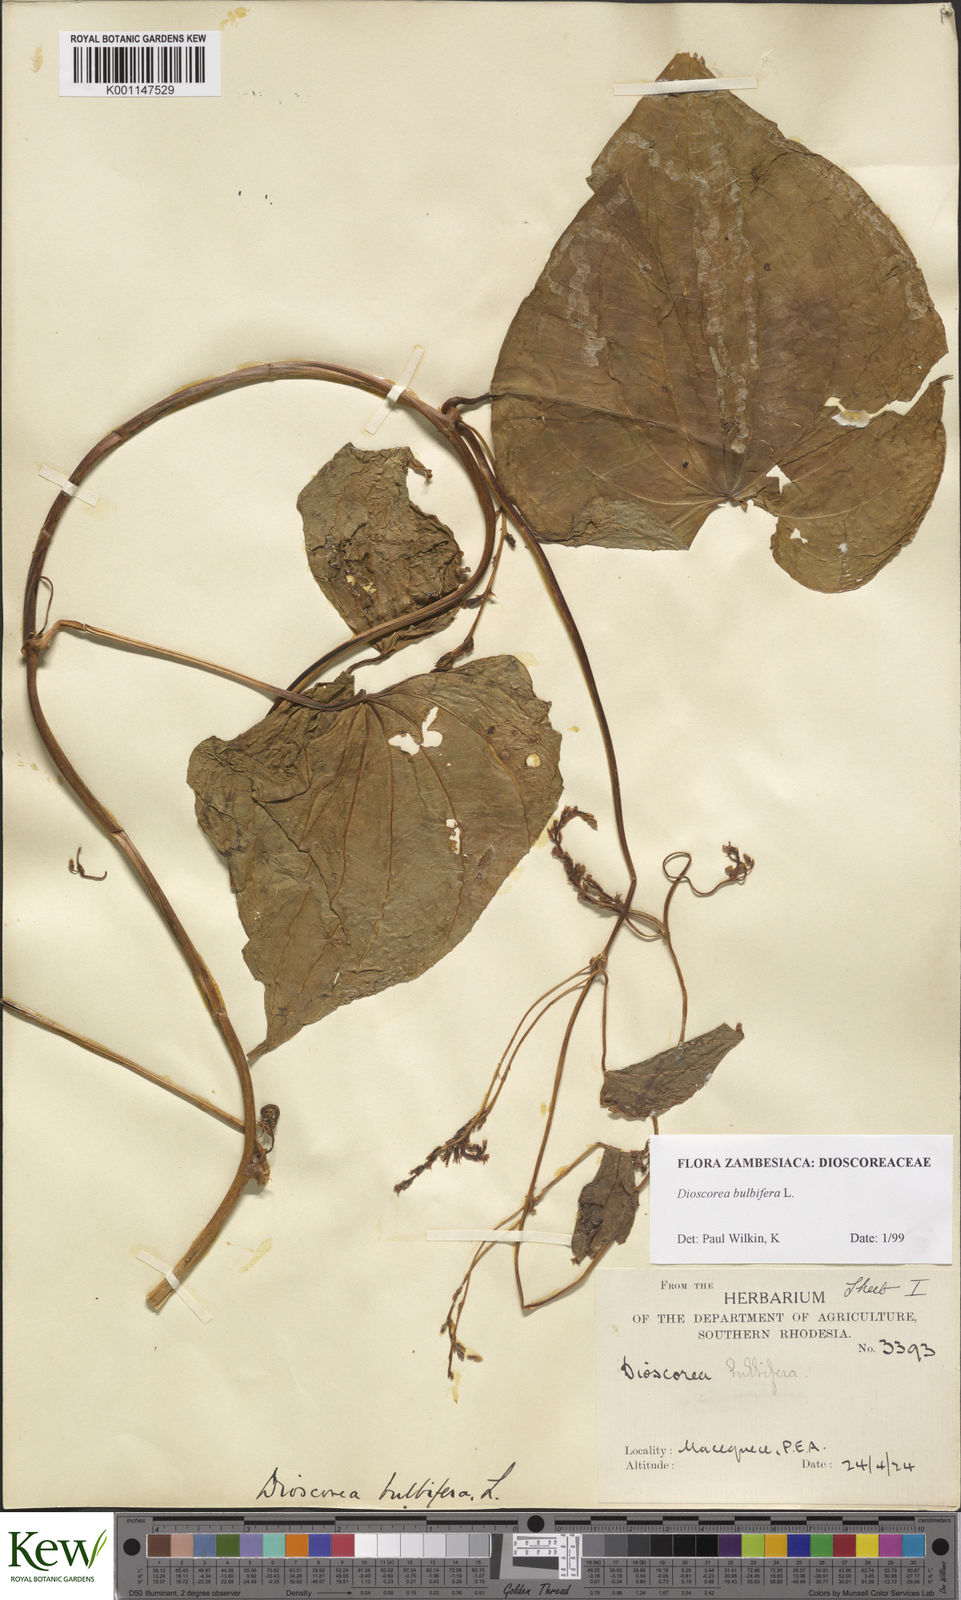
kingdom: Plantae
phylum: Tracheophyta
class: Liliopsida
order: Dioscoreales
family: Dioscoreaceae
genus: Dioscorea
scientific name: Dioscorea bulbifera
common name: Air yam
